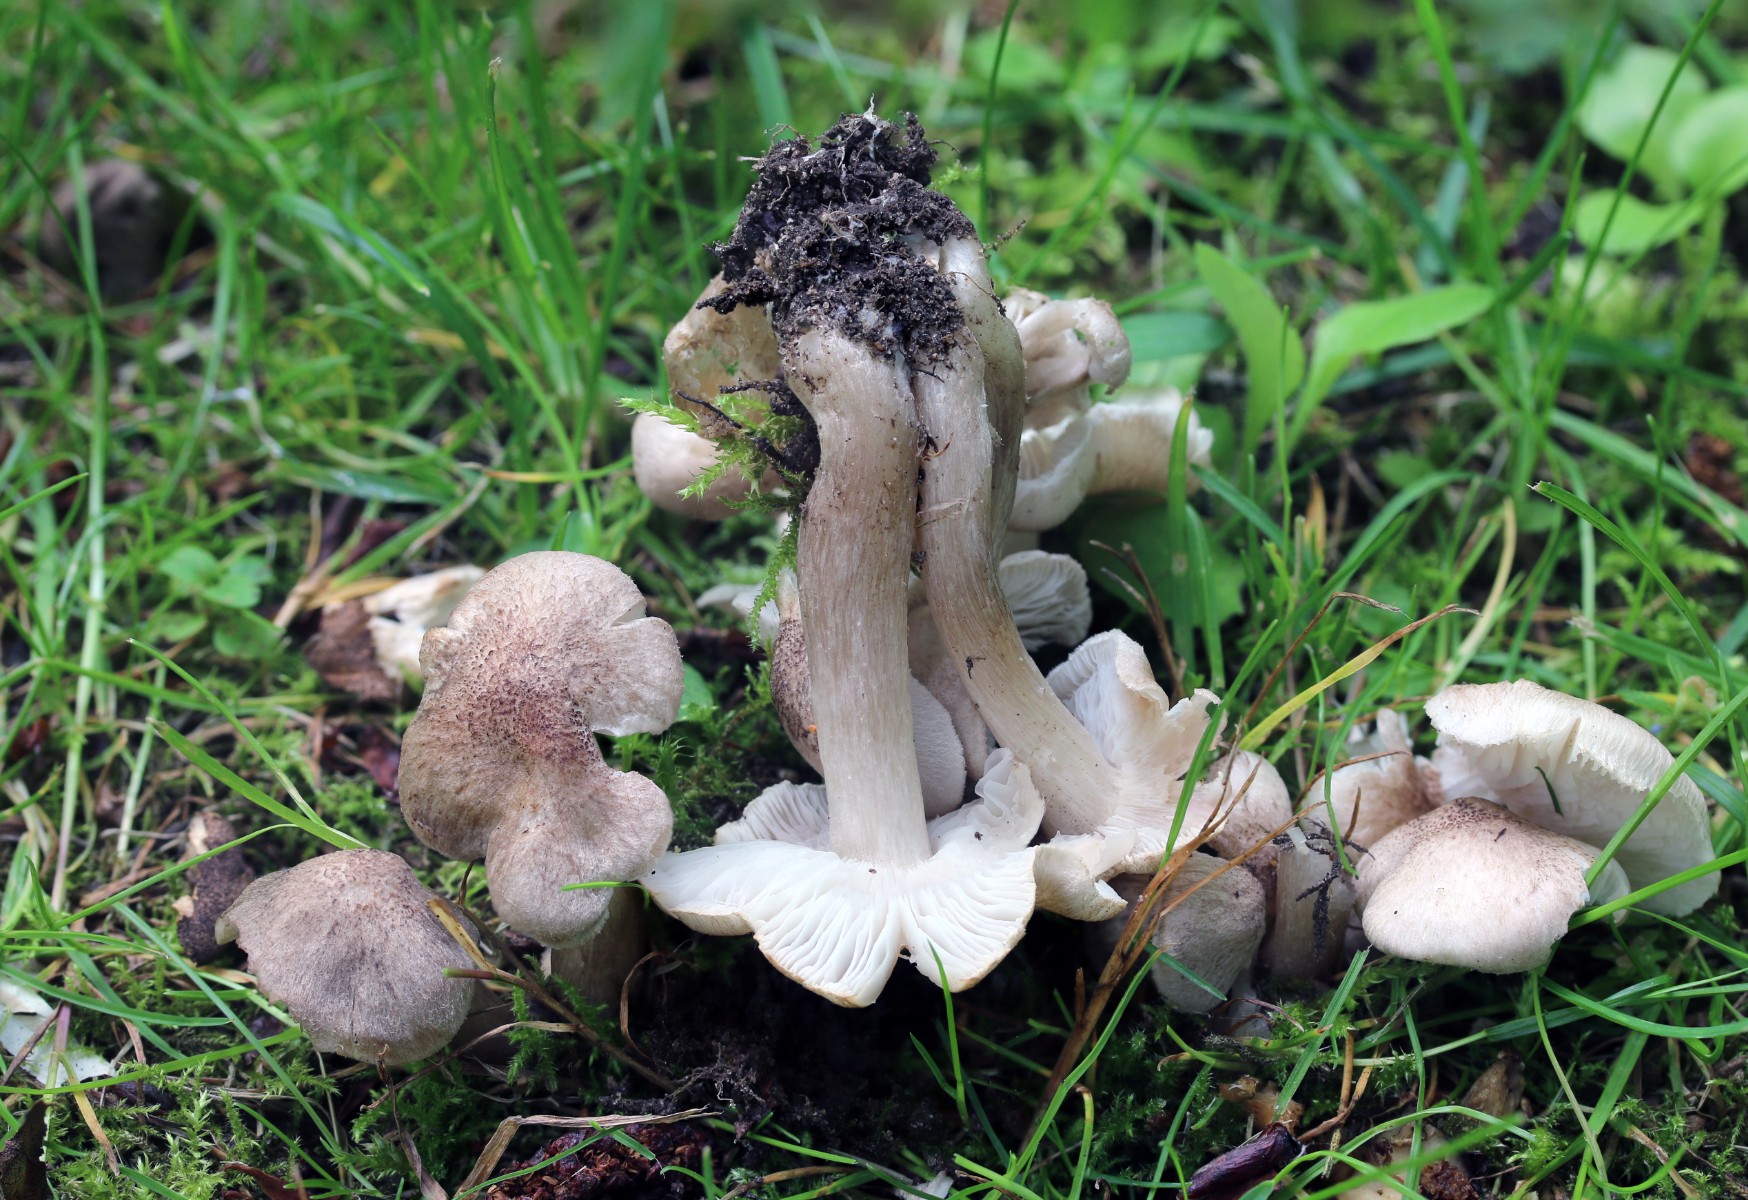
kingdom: Fungi
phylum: Basidiomycota
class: Agaricomycetes
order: Agaricales
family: Tricholomataceae
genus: Tricholoma
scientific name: Tricholoma argyraceum
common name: spids ridderhat
